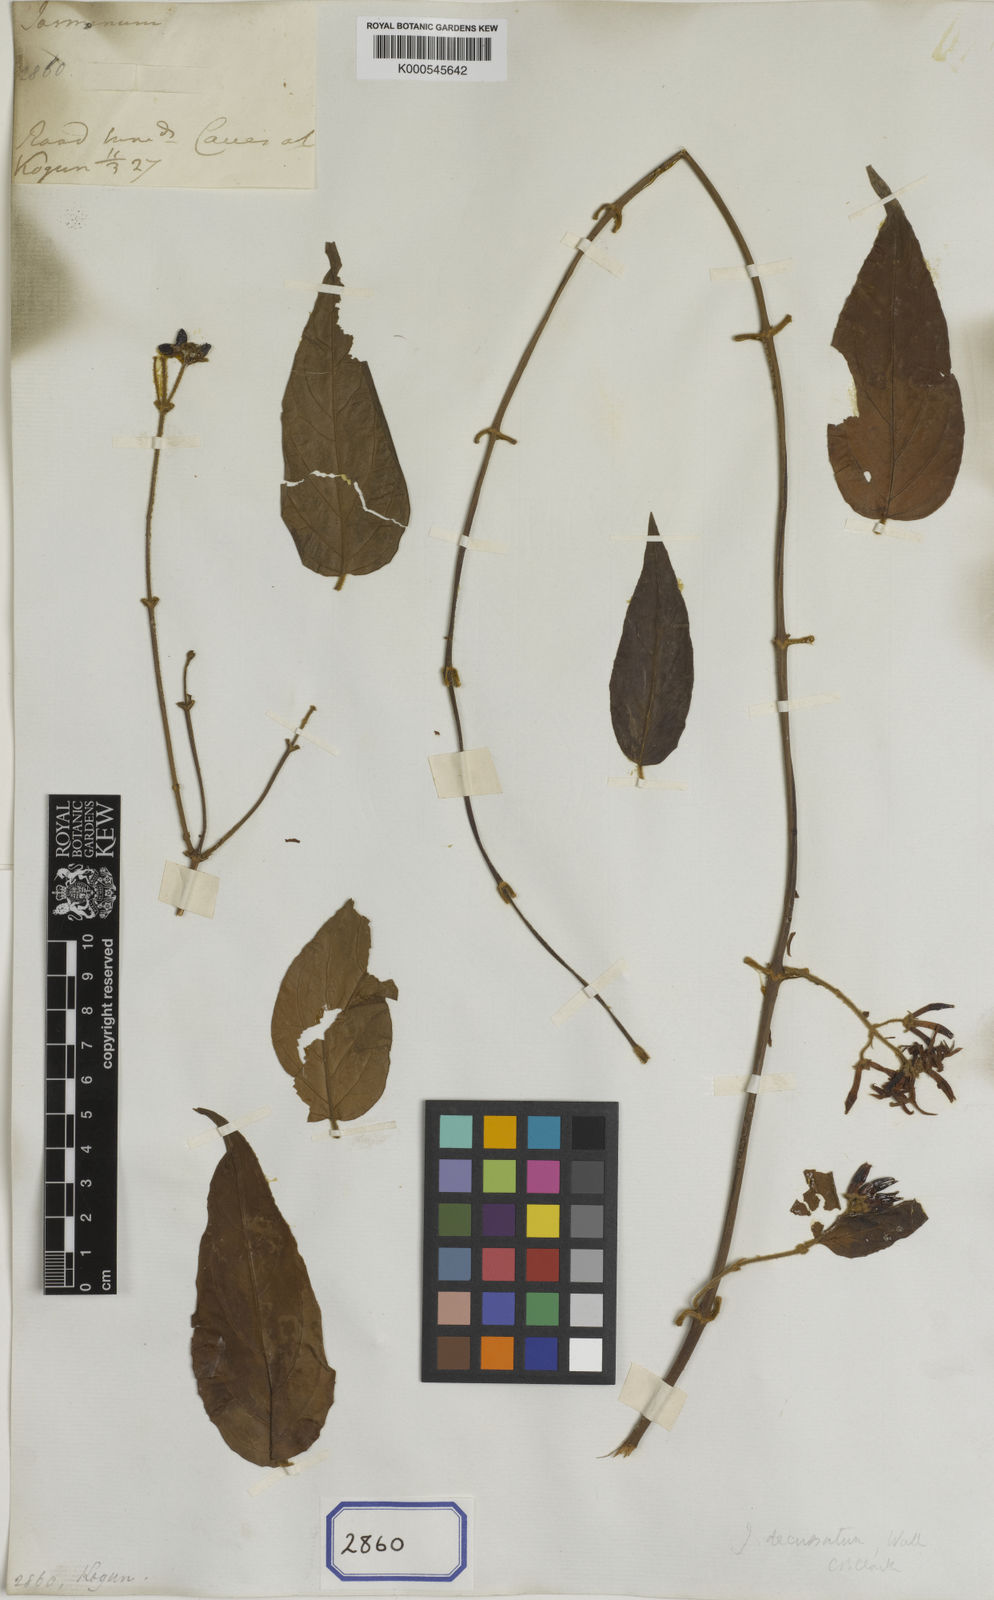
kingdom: Plantae
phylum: Tracheophyta
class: Magnoliopsida
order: Lamiales
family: Oleaceae
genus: Jasminum
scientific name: Jasminum scandens
